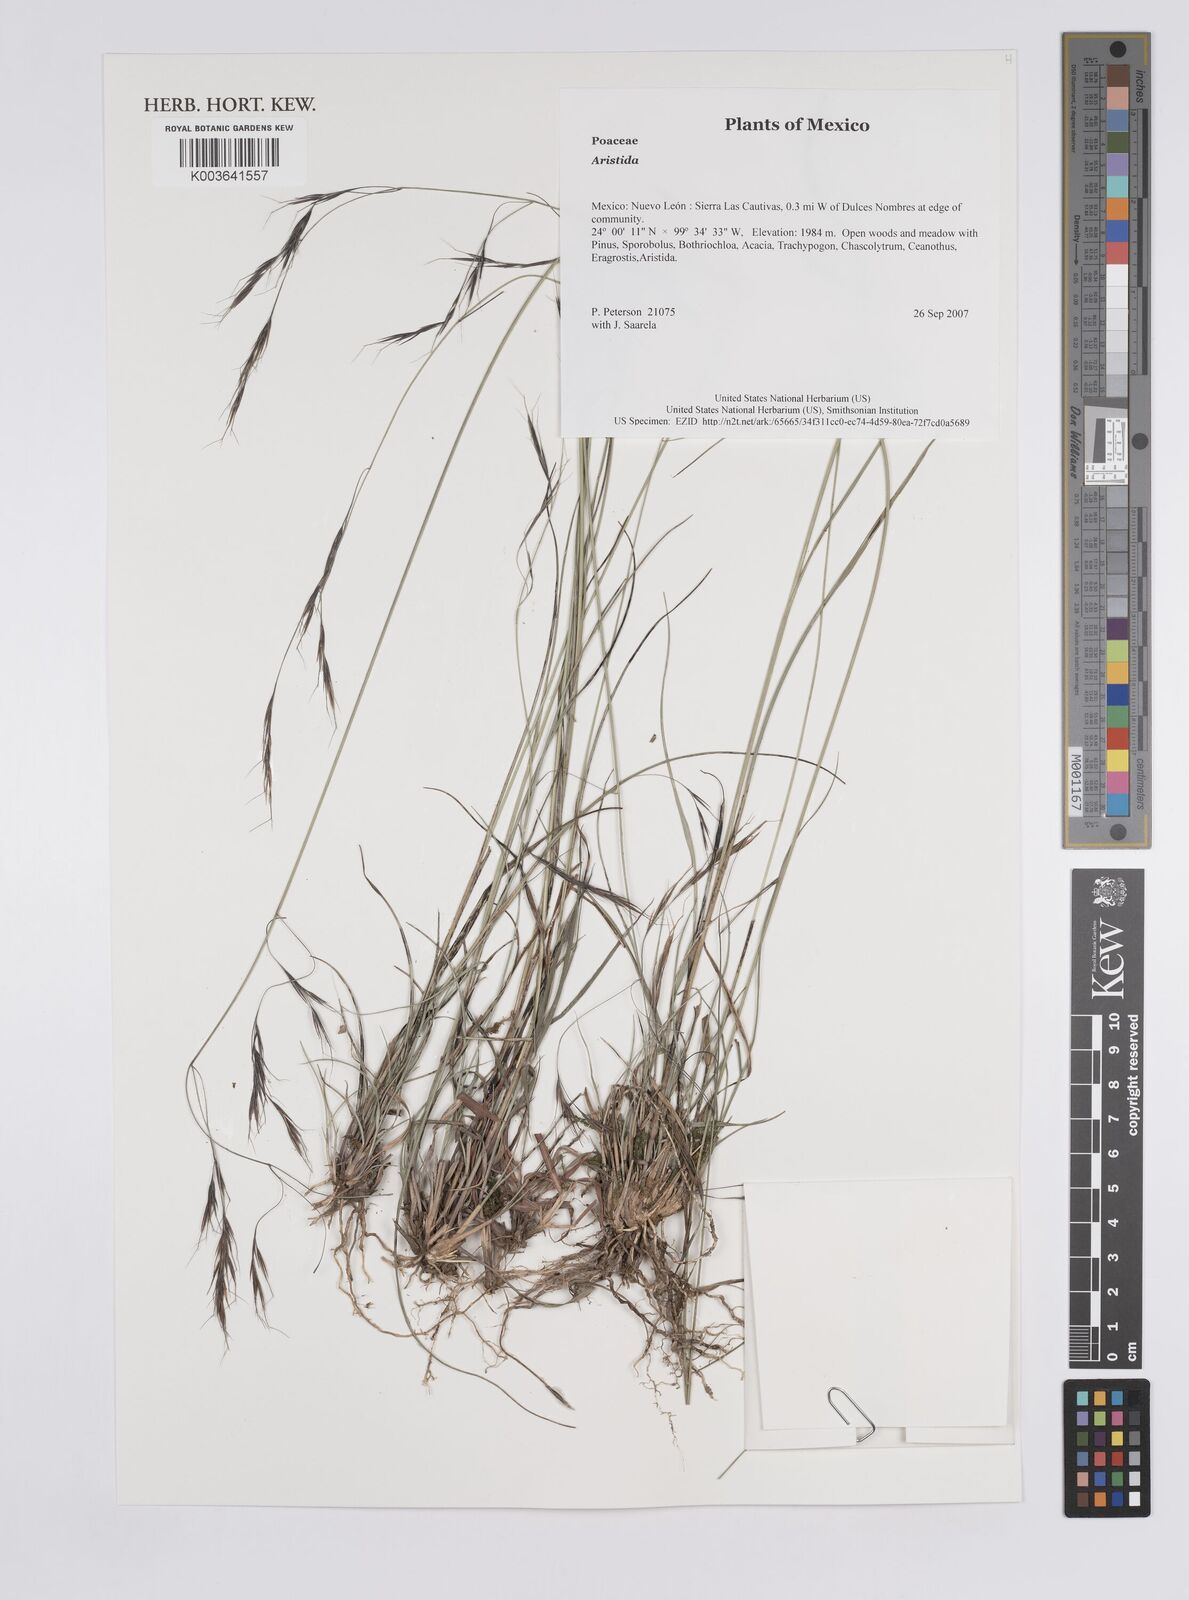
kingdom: Plantae
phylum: Tracheophyta
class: Liliopsida
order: Poales
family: Poaceae
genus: Aristida
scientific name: Aristida
